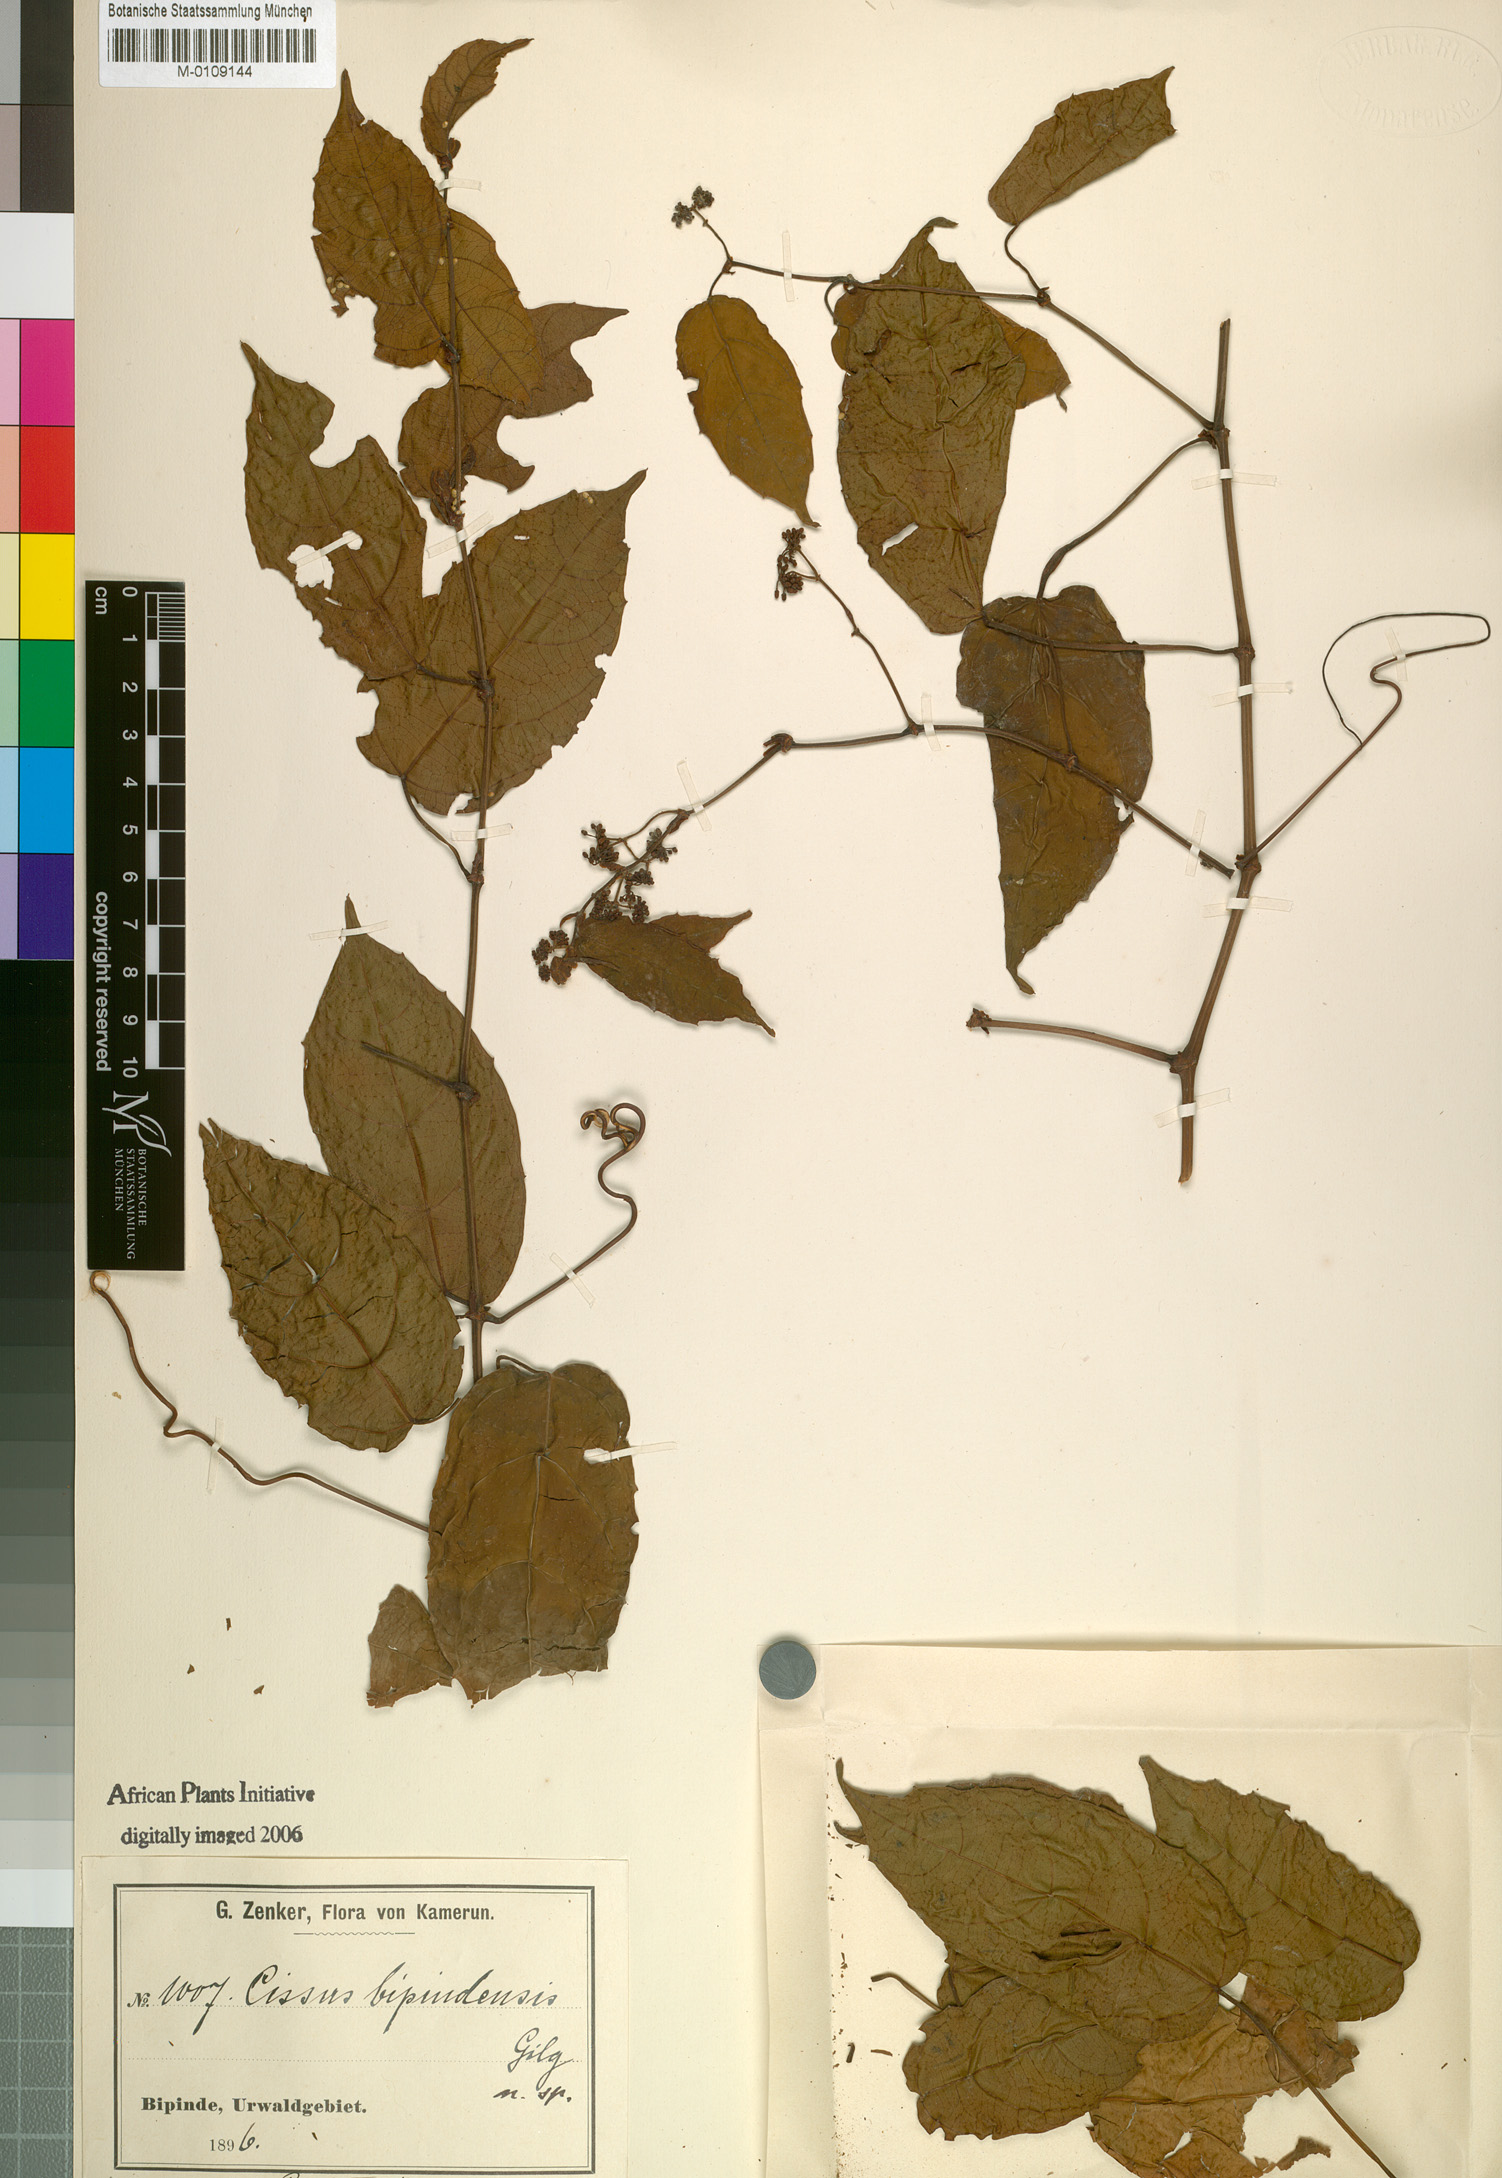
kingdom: Plantae
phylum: Tracheophyta
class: Magnoliopsida
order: Vitales
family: Vitaceae
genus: Cissus
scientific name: Cissus
